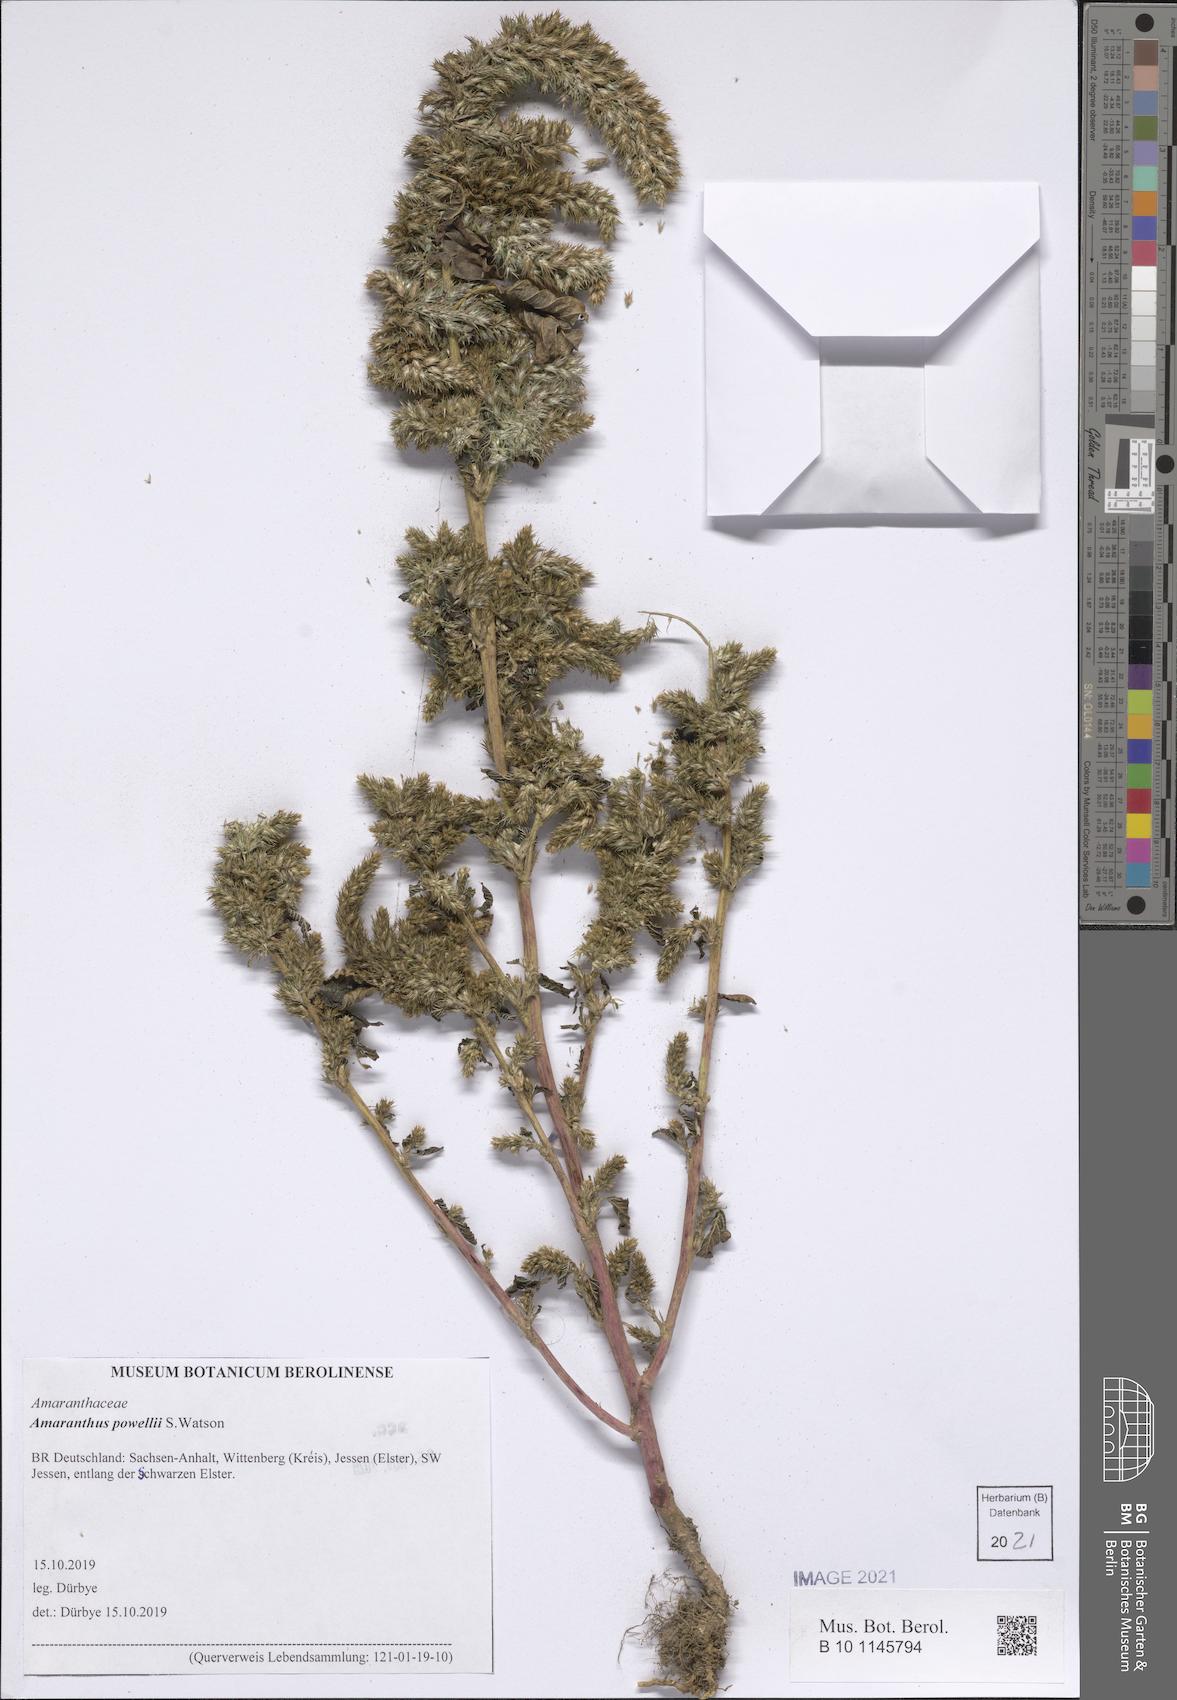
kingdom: Plantae
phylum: Tracheophyta
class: Magnoliopsida
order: Caryophyllales
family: Amaranthaceae
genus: Amaranthus
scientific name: Amaranthus powellii
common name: Powell's amaranth
